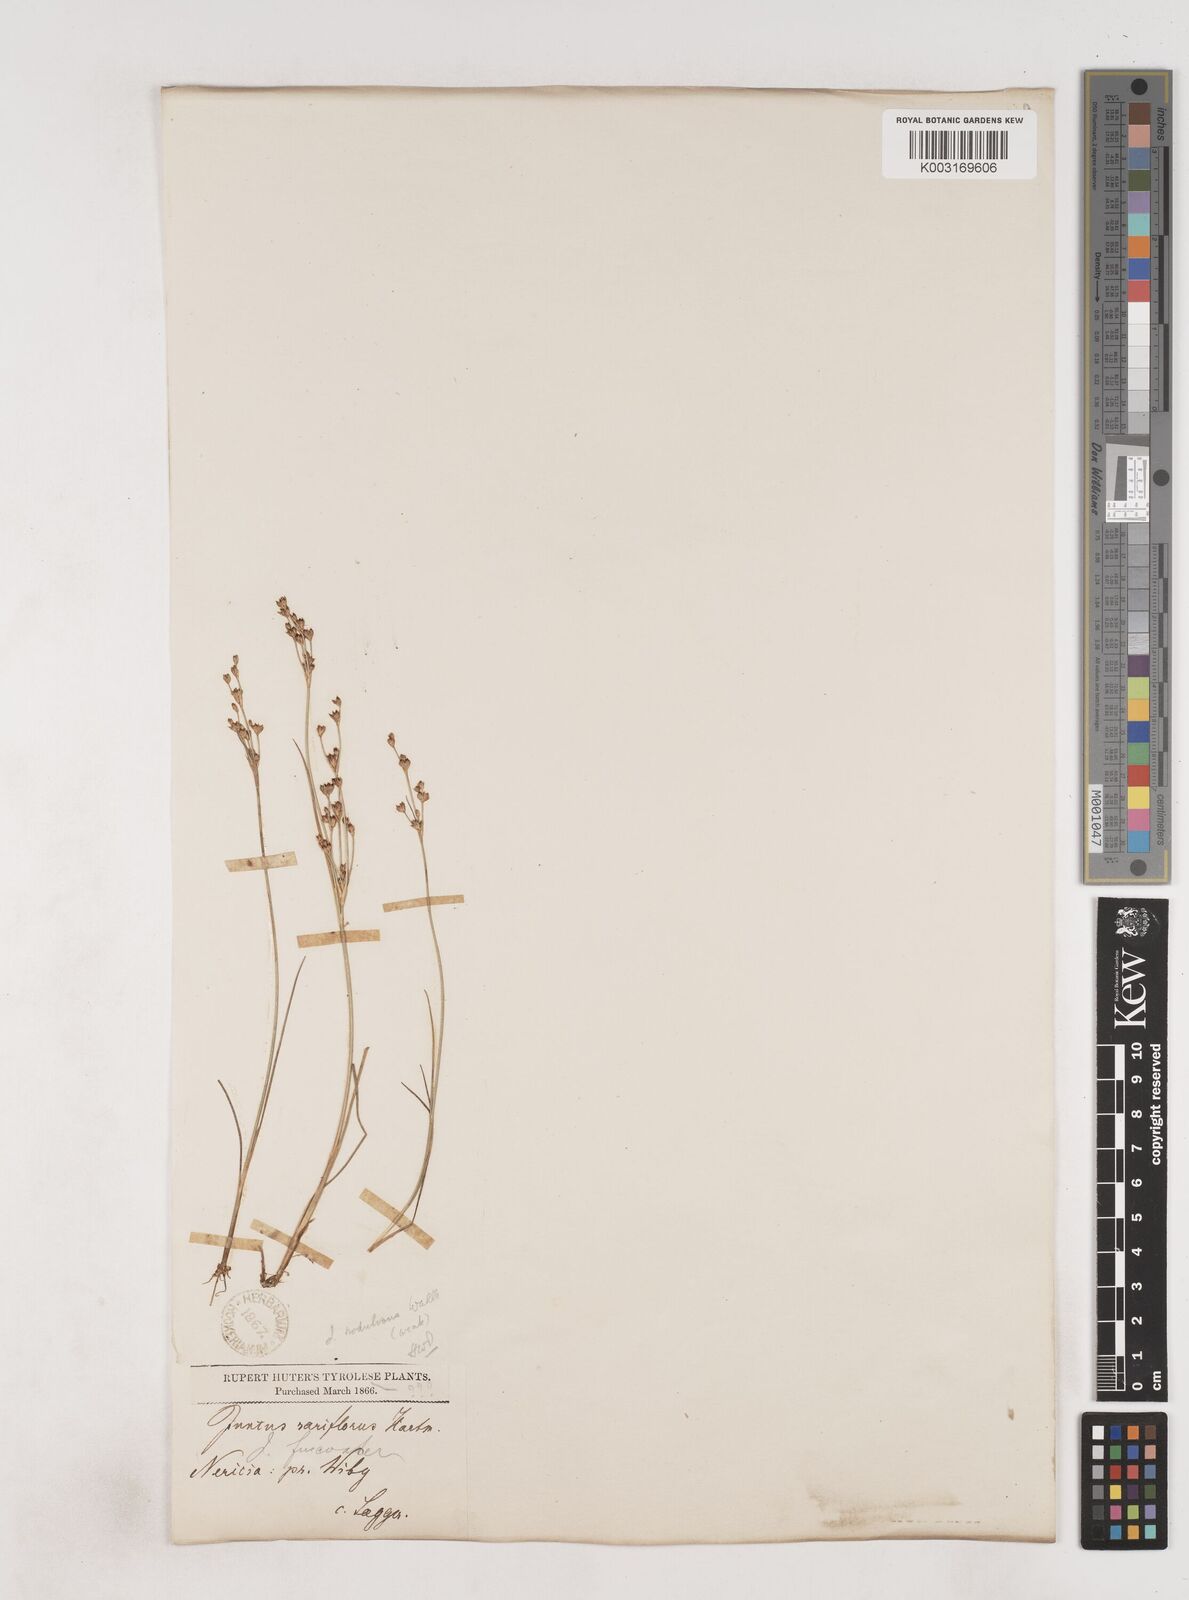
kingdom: Plantae
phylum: Tracheophyta
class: Liliopsida
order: Poales
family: Juncaceae
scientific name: Juncaceae
